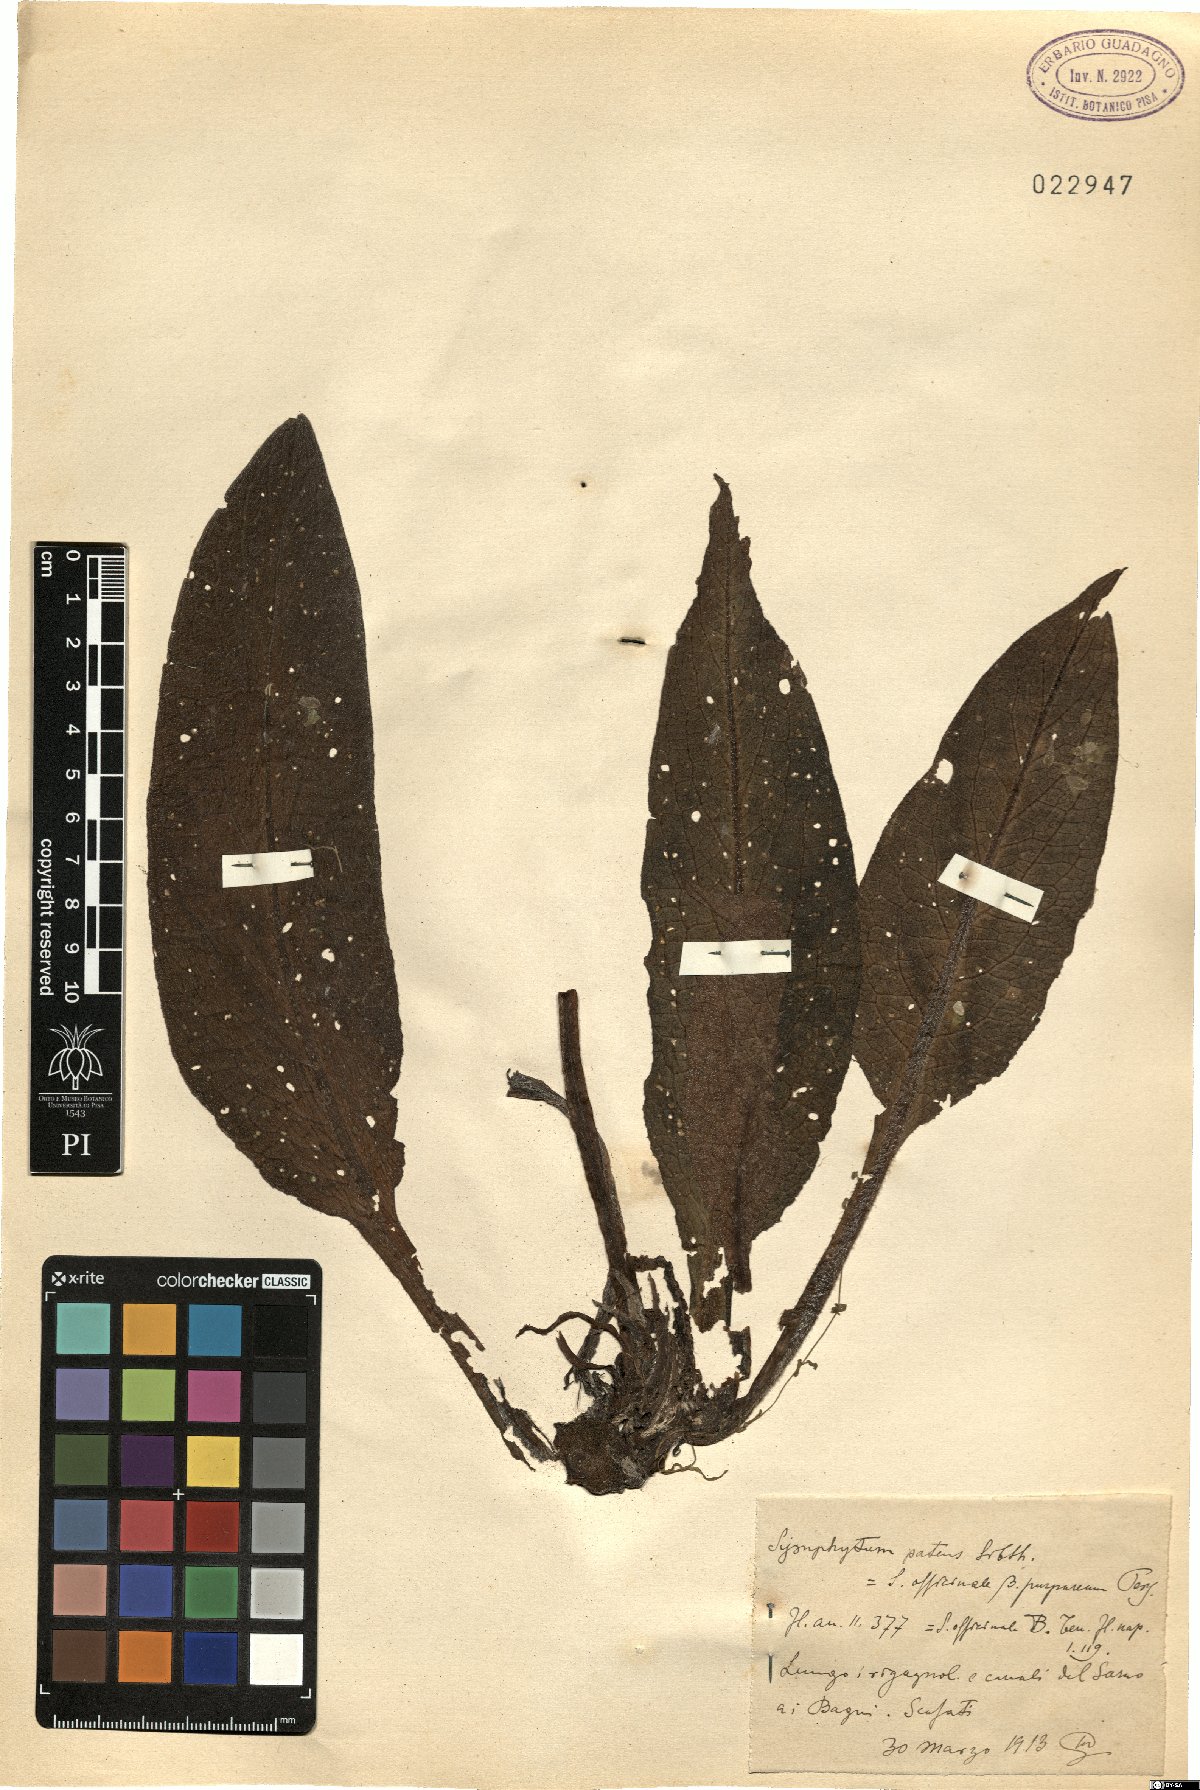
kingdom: Plantae
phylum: Tracheophyta
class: Magnoliopsida
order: Boraginales
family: Boraginaceae
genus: Symphytum
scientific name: Symphytum officinale
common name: Common comfrey
